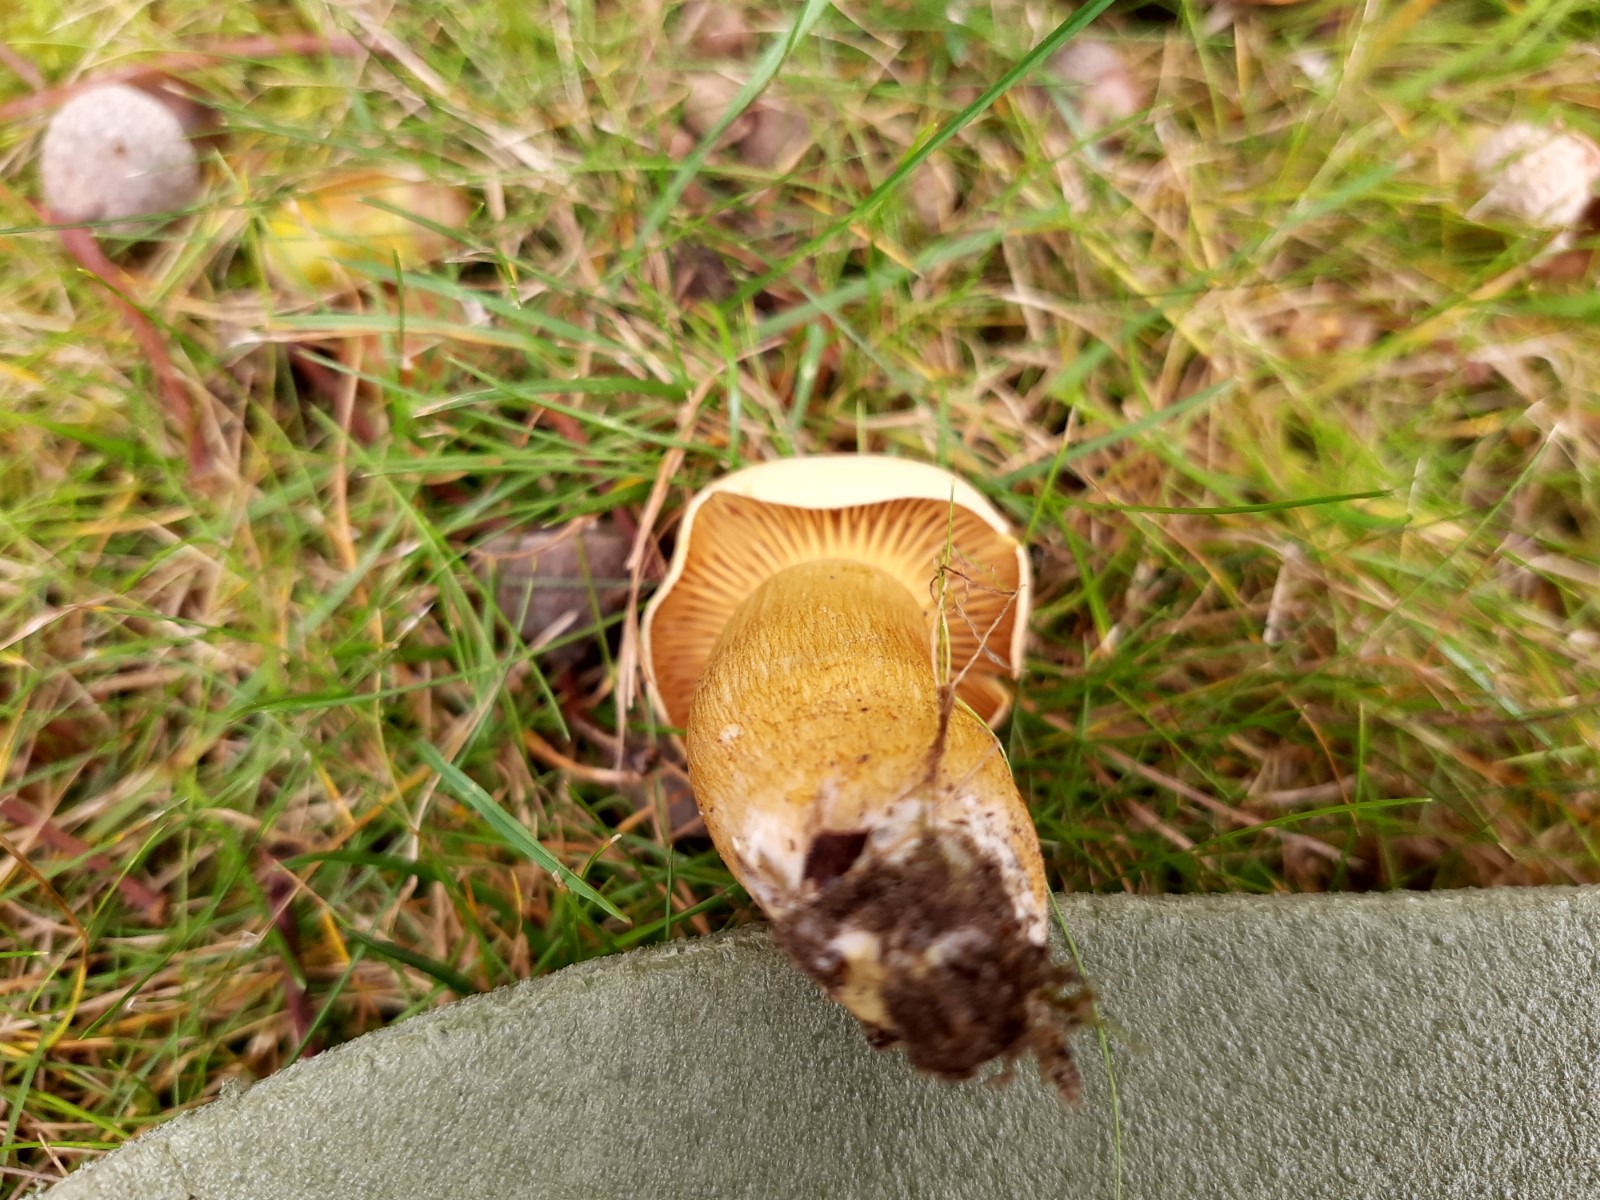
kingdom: Fungi
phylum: Basidiomycota
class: Agaricomycetes
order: Agaricales
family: Tricholomataceae
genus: Tricholoma
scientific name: Tricholoma sulphureum
